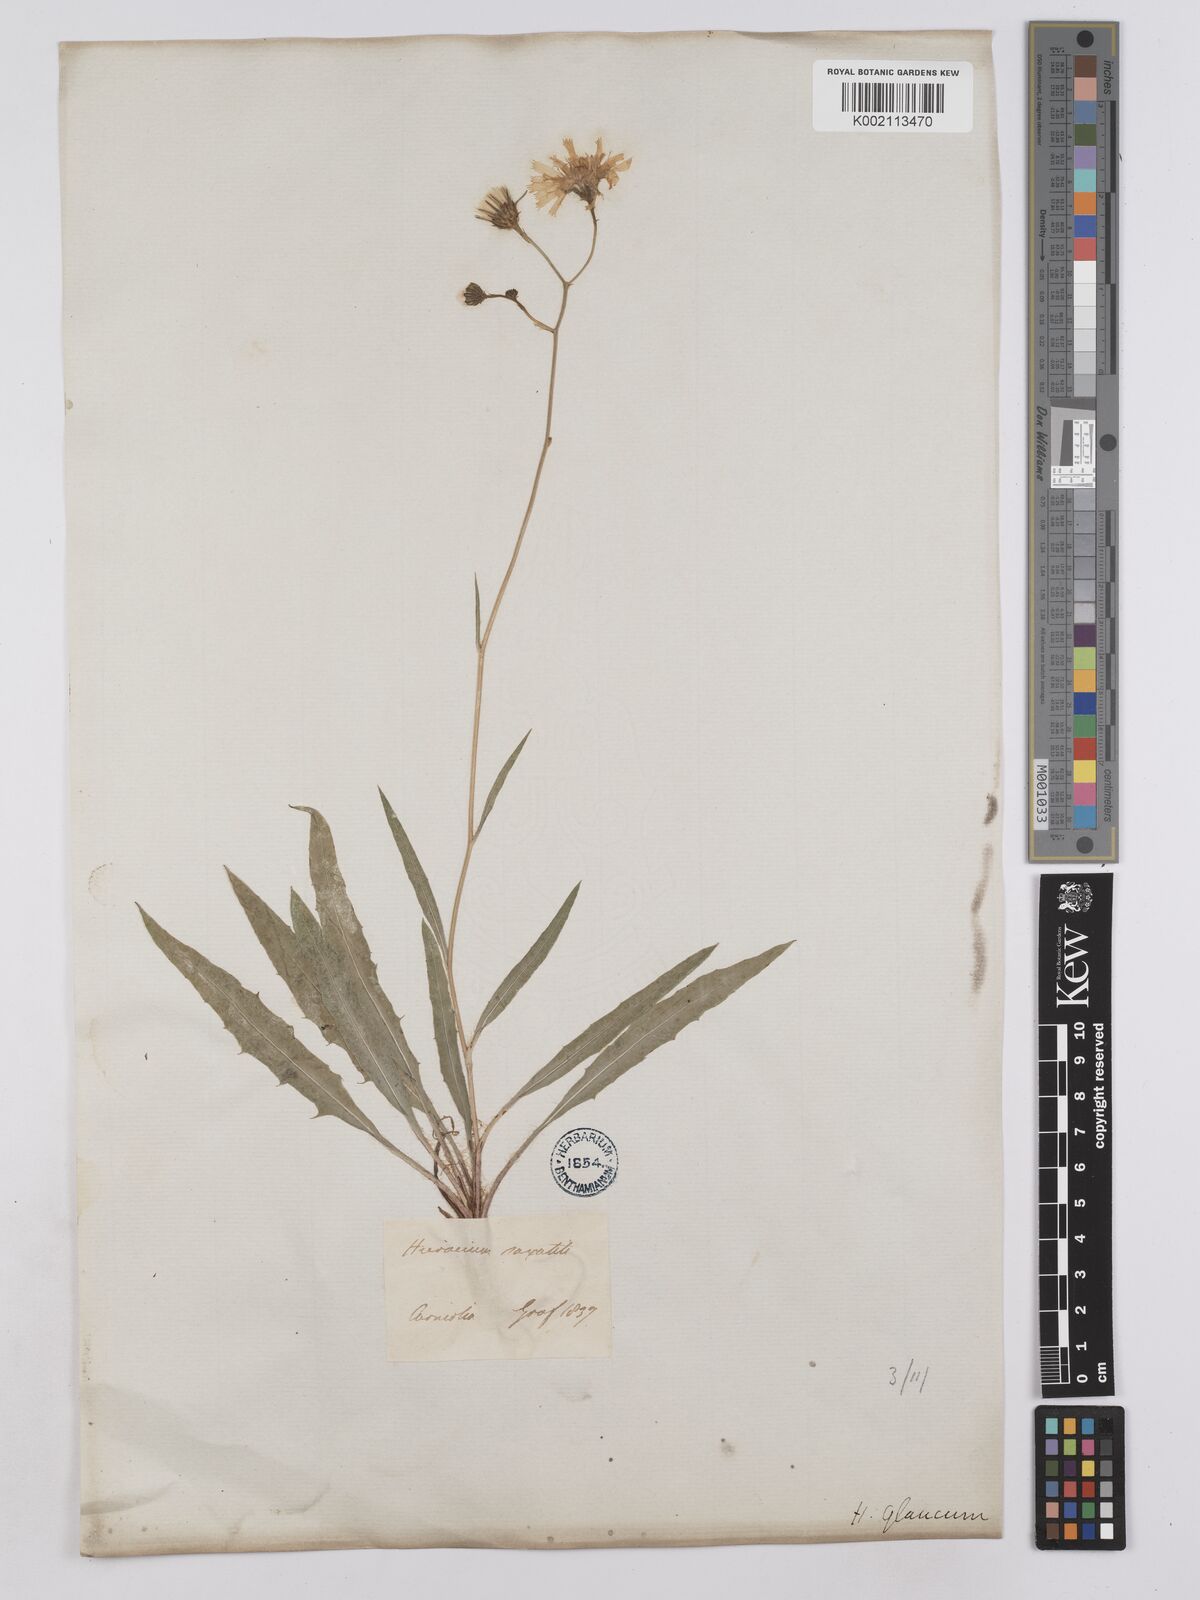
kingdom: Plantae
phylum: Tracheophyta
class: Magnoliopsida
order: Asterales
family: Asteraceae
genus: Hieracium
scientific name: Hieracium carneum
